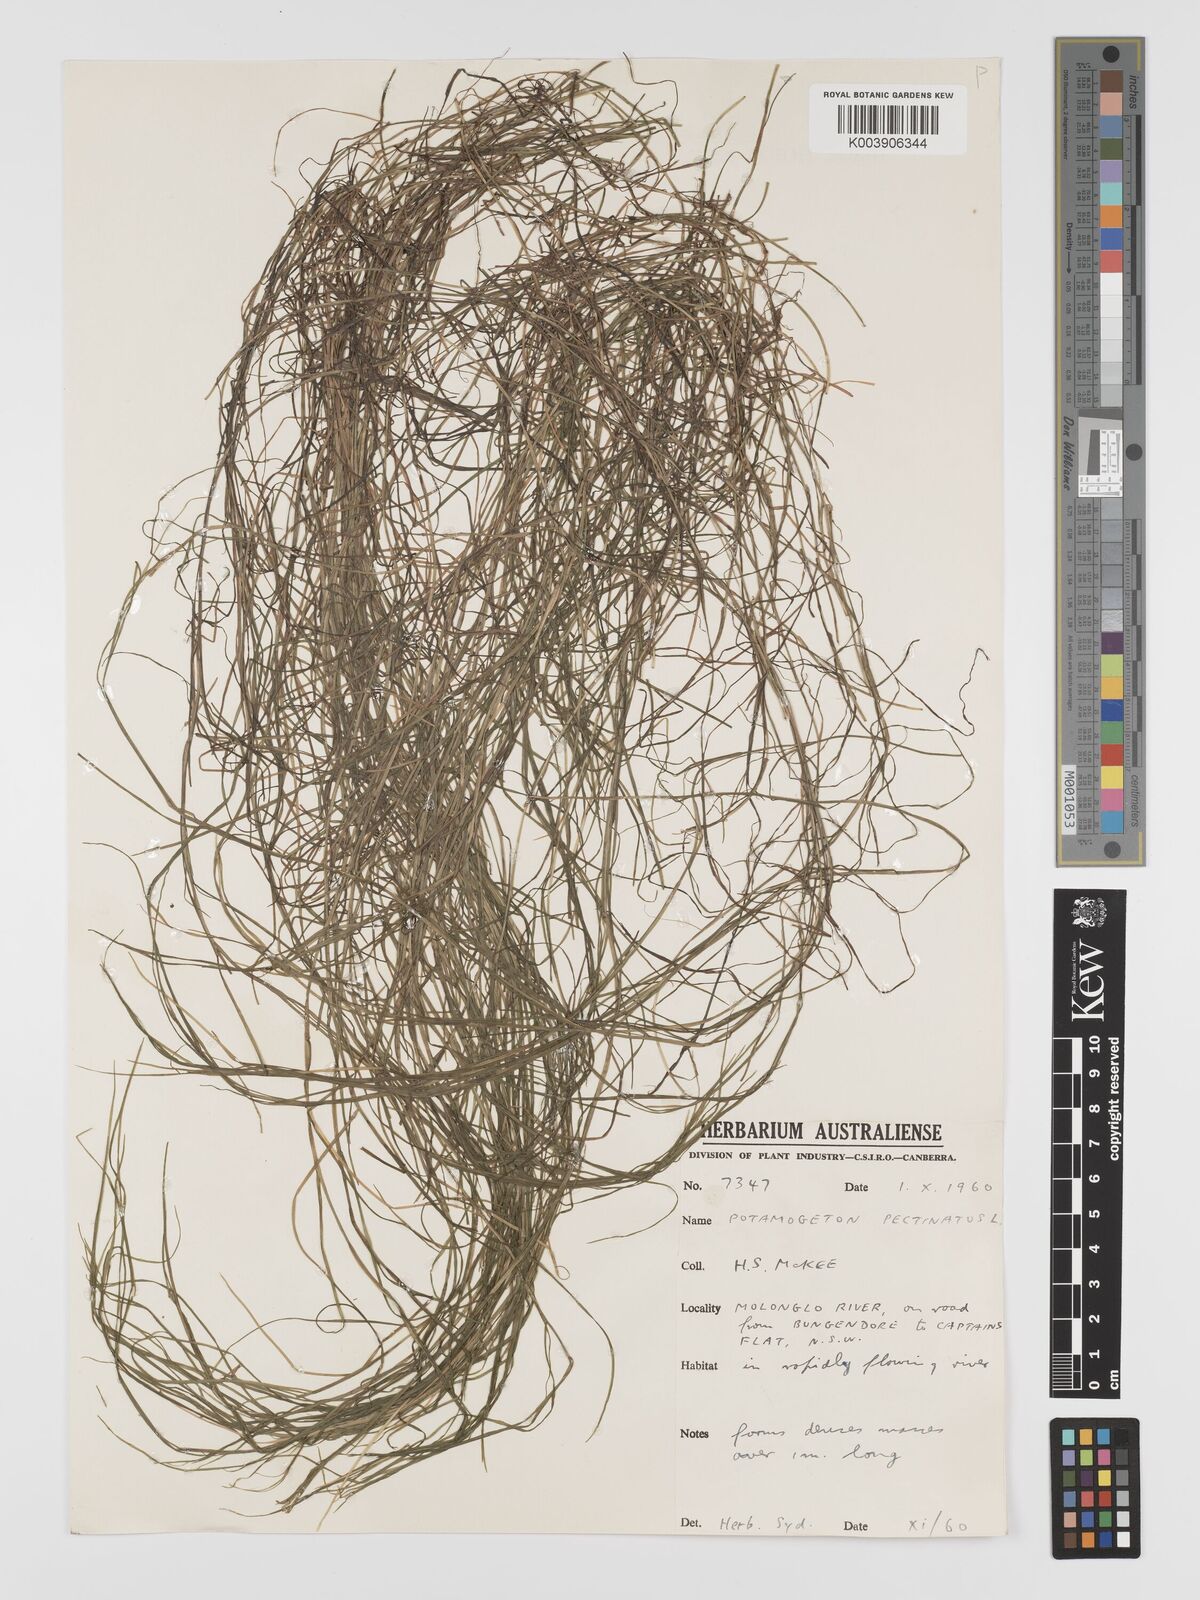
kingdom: Plantae
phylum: Tracheophyta
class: Liliopsida
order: Alismatales
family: Potamogetonaceae
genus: Stuckenia
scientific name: Stuckenia pectinata
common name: Sago pondweed
